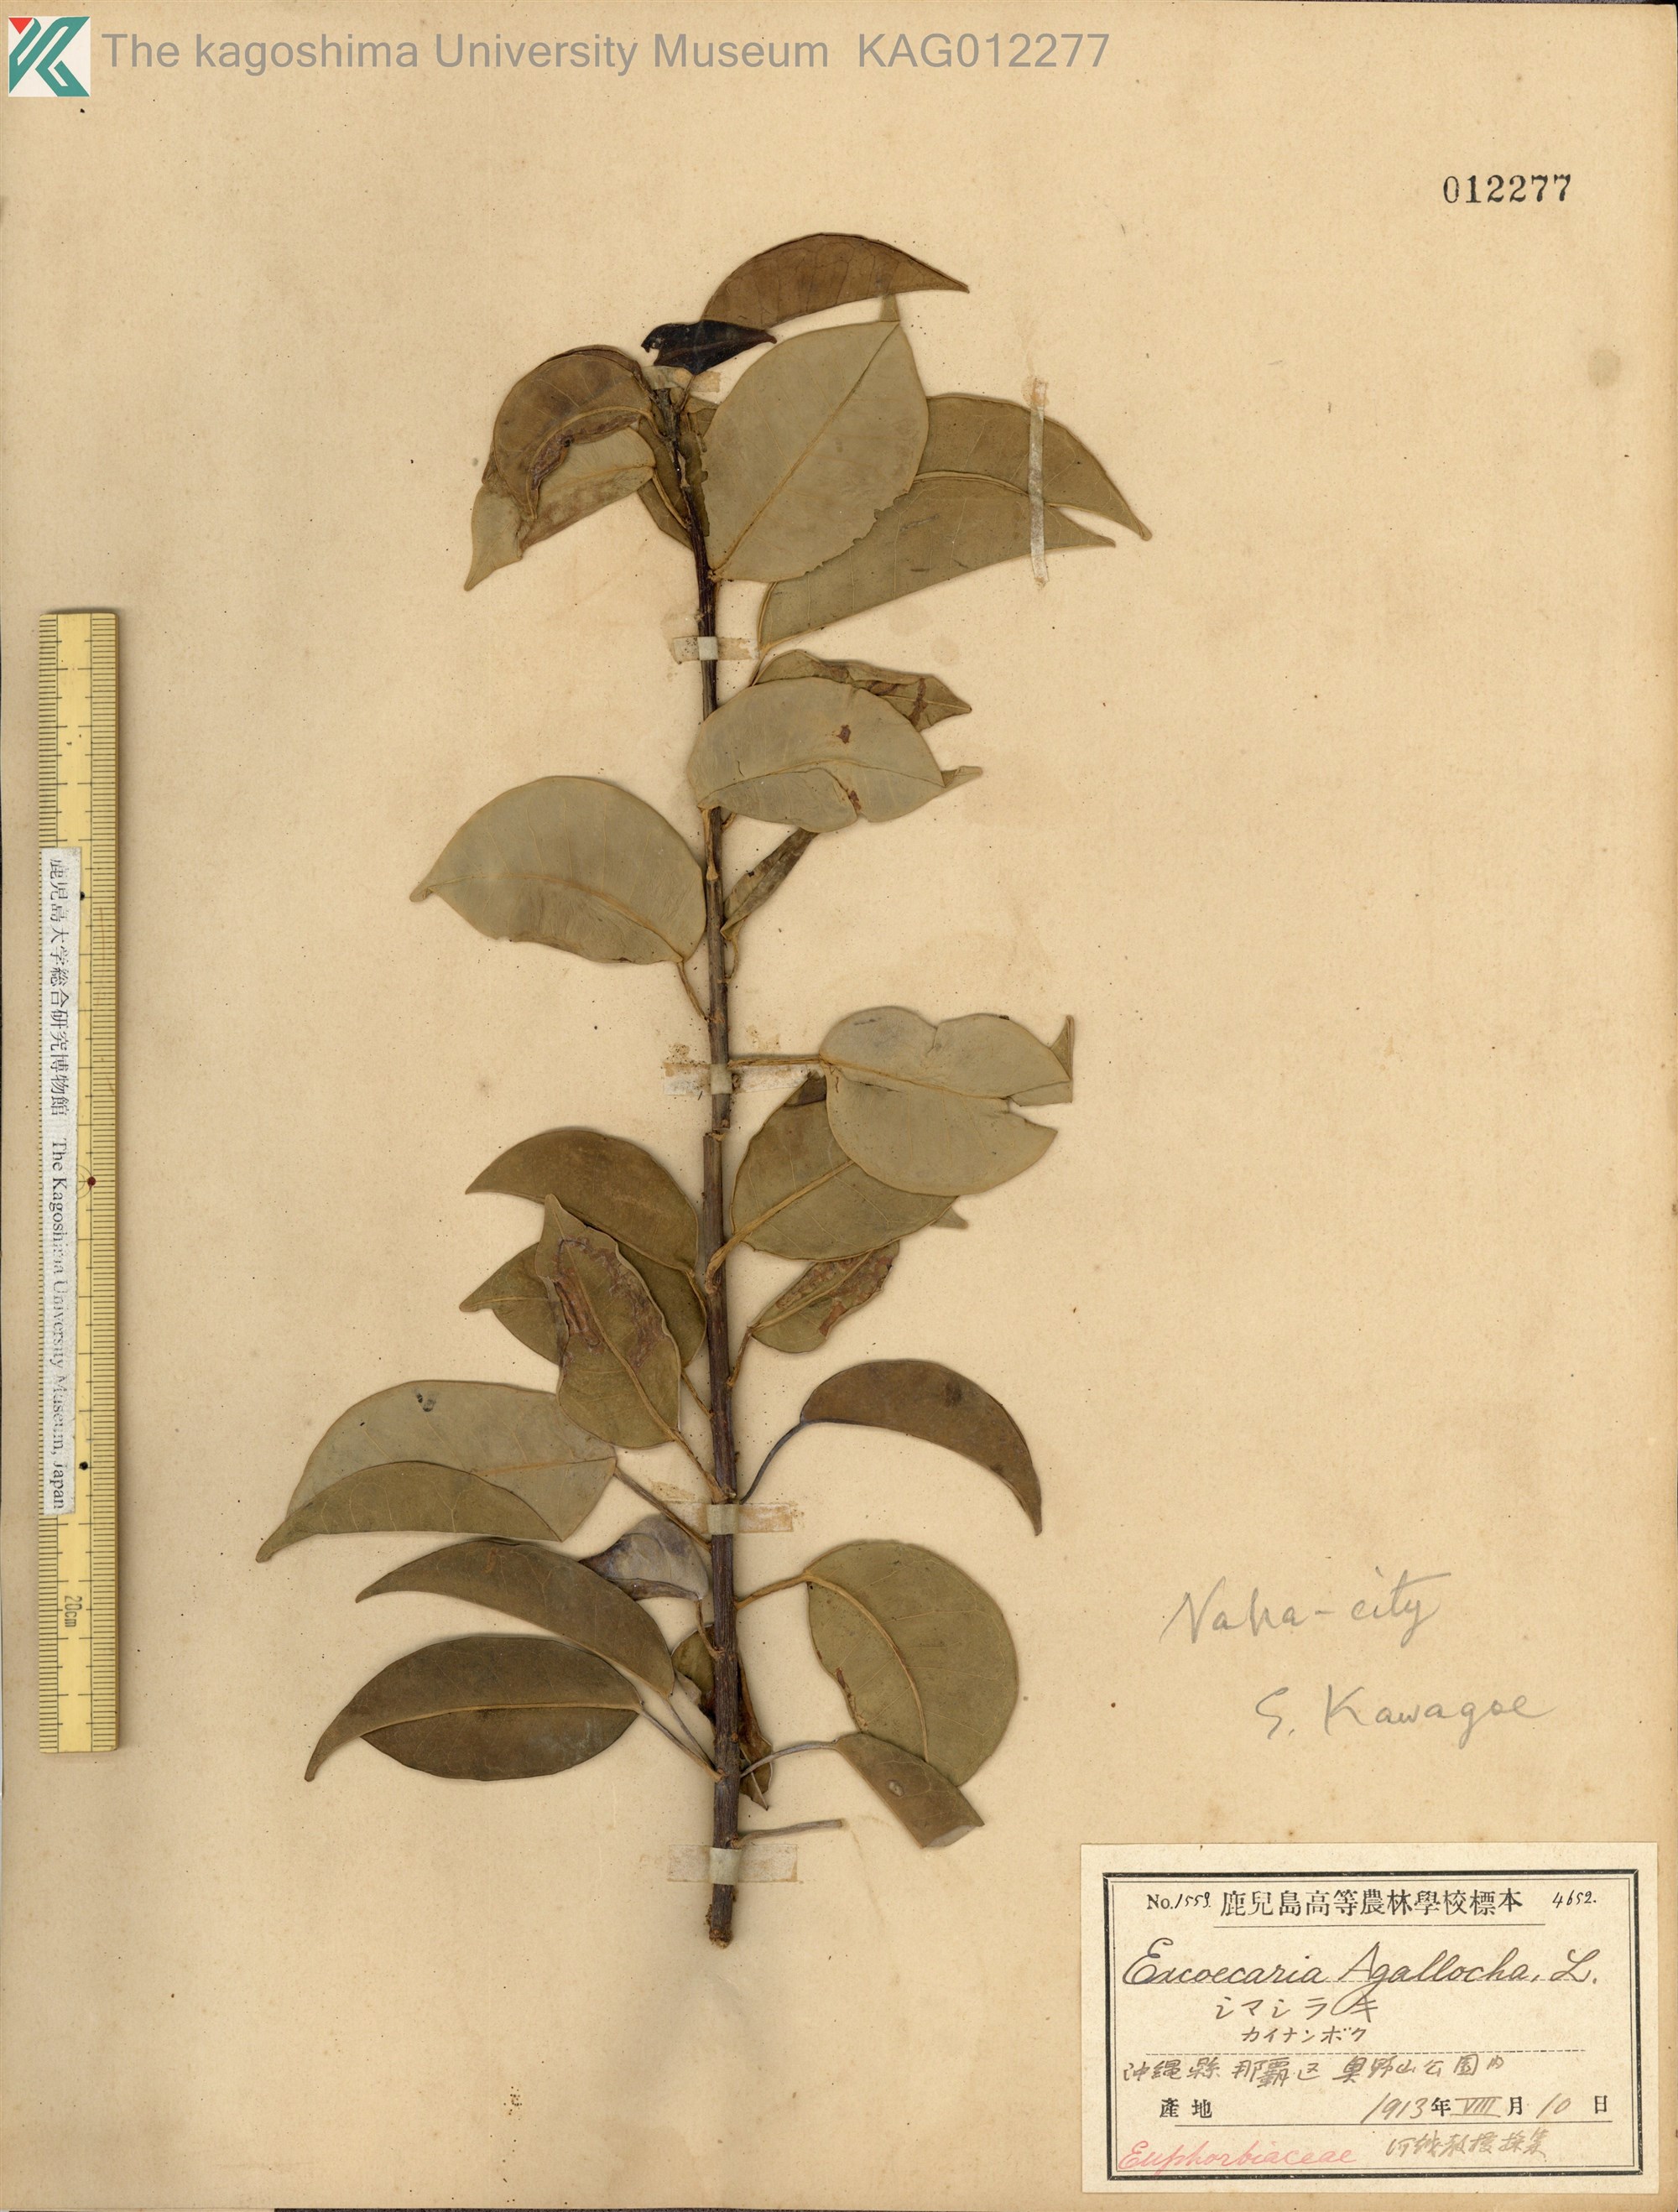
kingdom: Plantae
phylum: Tracheophyta
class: Magnoliopsida
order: Malpighiales
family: Euphorbiaceae
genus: Excoecaria
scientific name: Excoecaria agallocha
